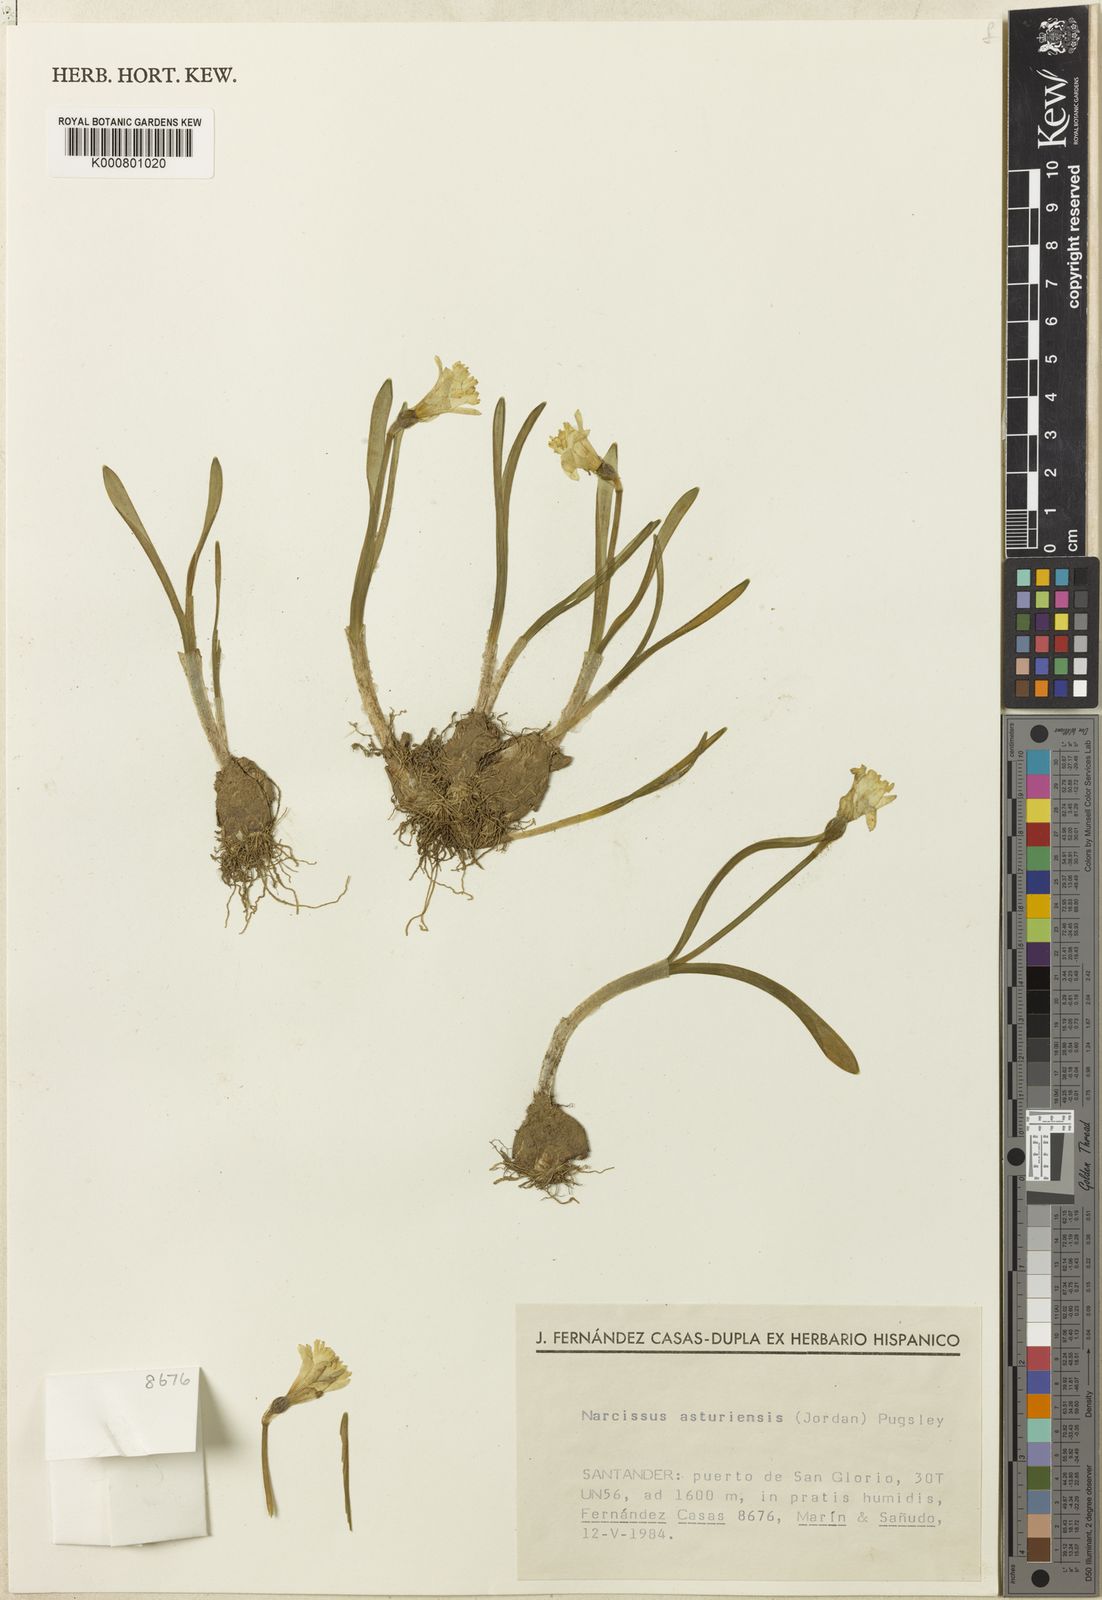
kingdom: Plantae
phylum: Tracheophyta
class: Liliopsida
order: Asparagales
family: Amaryllidaceae
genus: Narcissus
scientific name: Narcissus cuneiflorus
